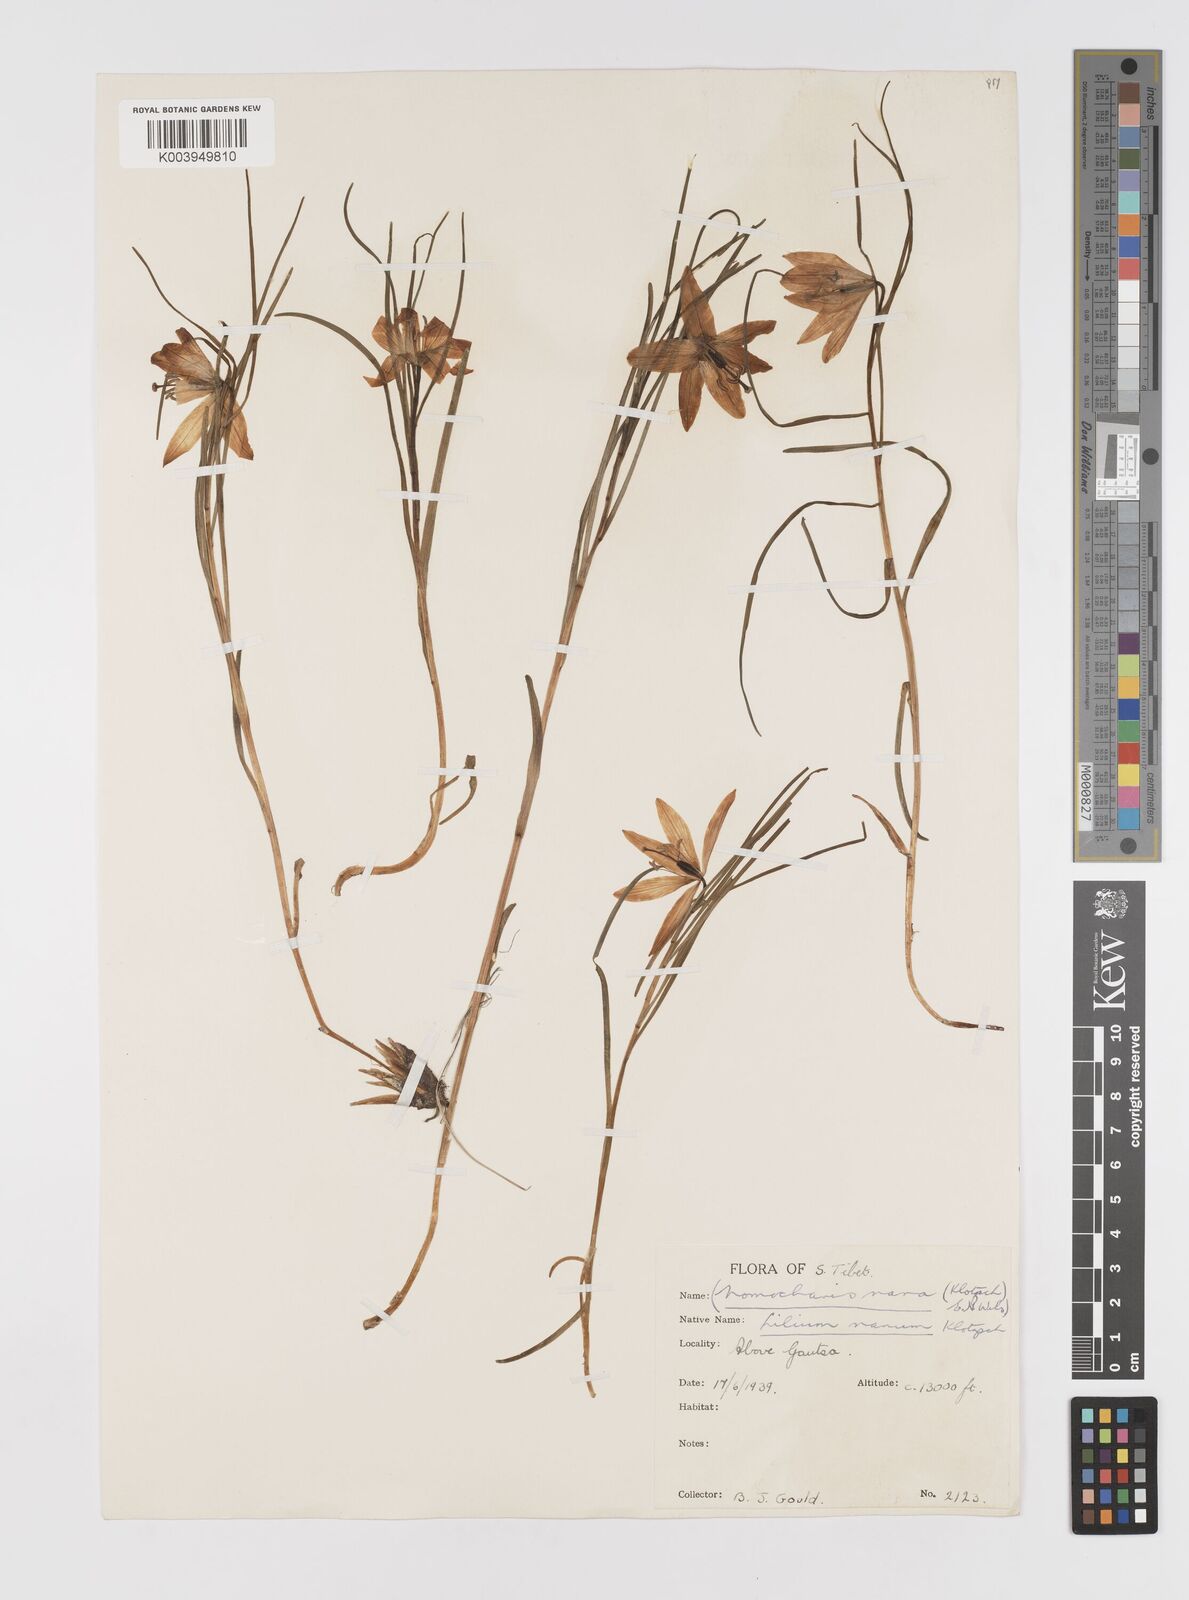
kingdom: Plantae
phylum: Tracheophyta
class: Liliopsida
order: Liliales
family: Liliaceae
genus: Lilium
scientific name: Lilium nanum
